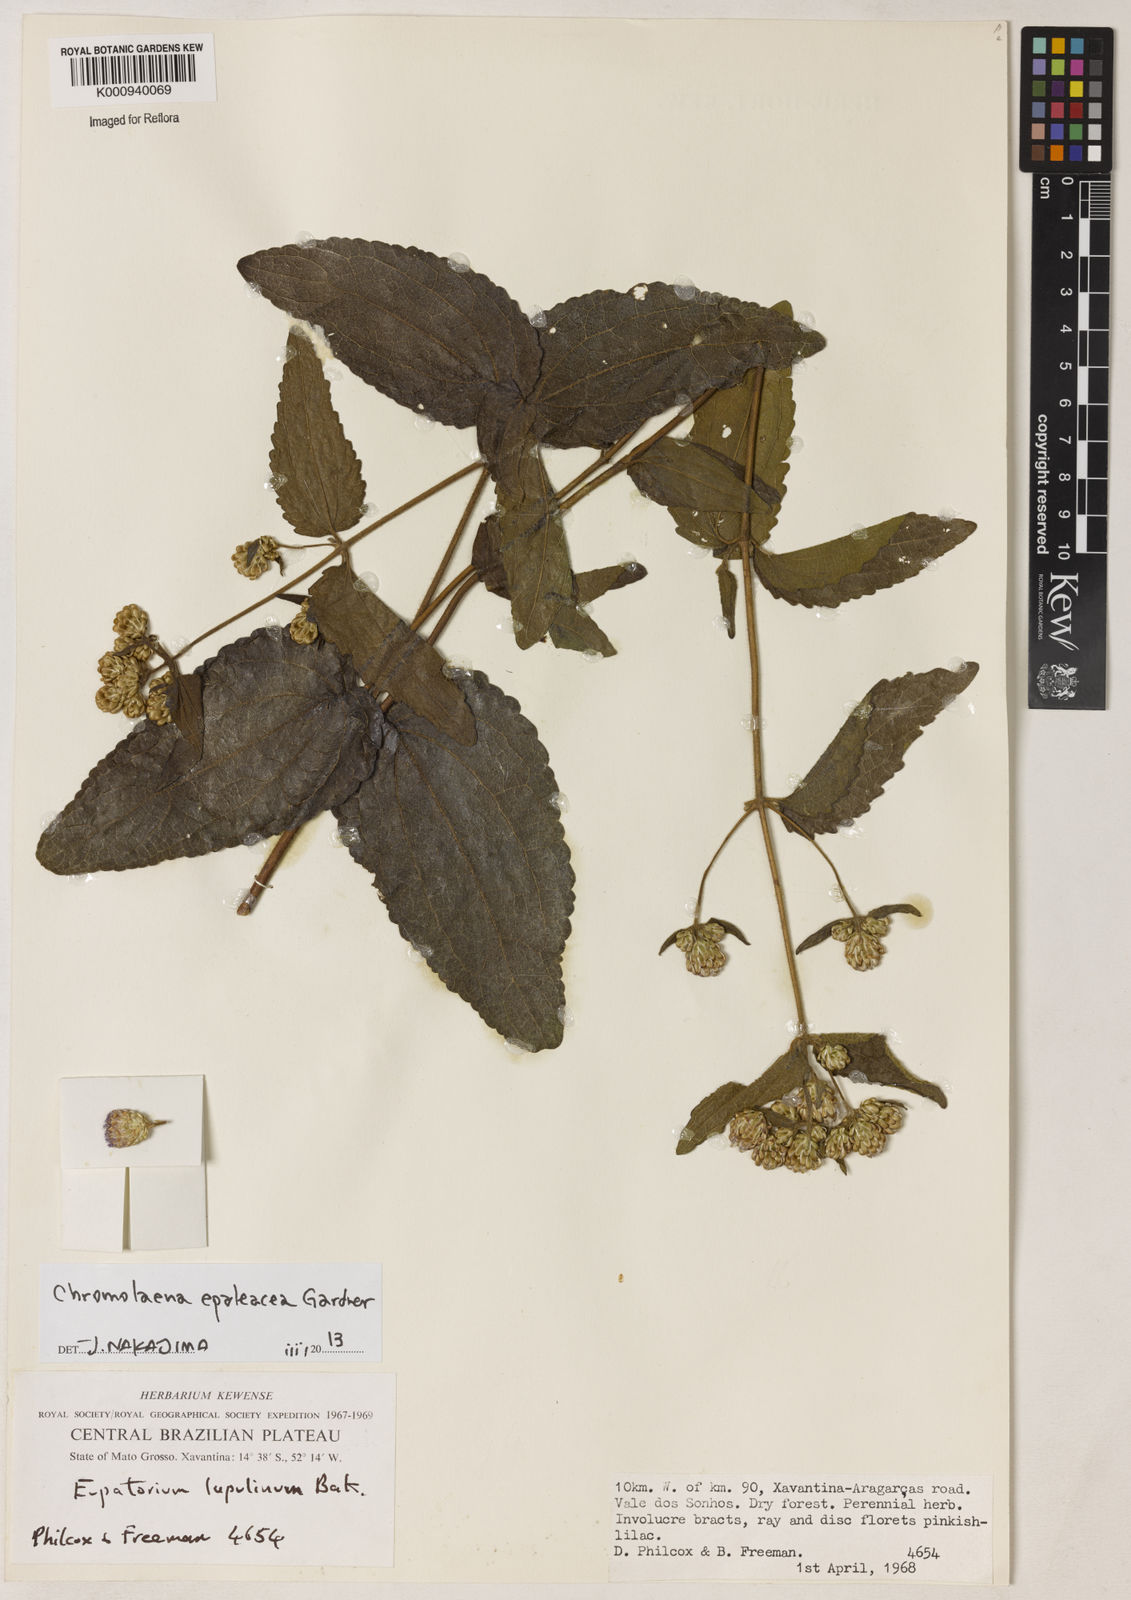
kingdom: Plantae
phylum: Tracheophyta
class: Magnoliopsida
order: Asterales
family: Asteraceae
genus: Chromolaena
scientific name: Chromolaena epaleacea
